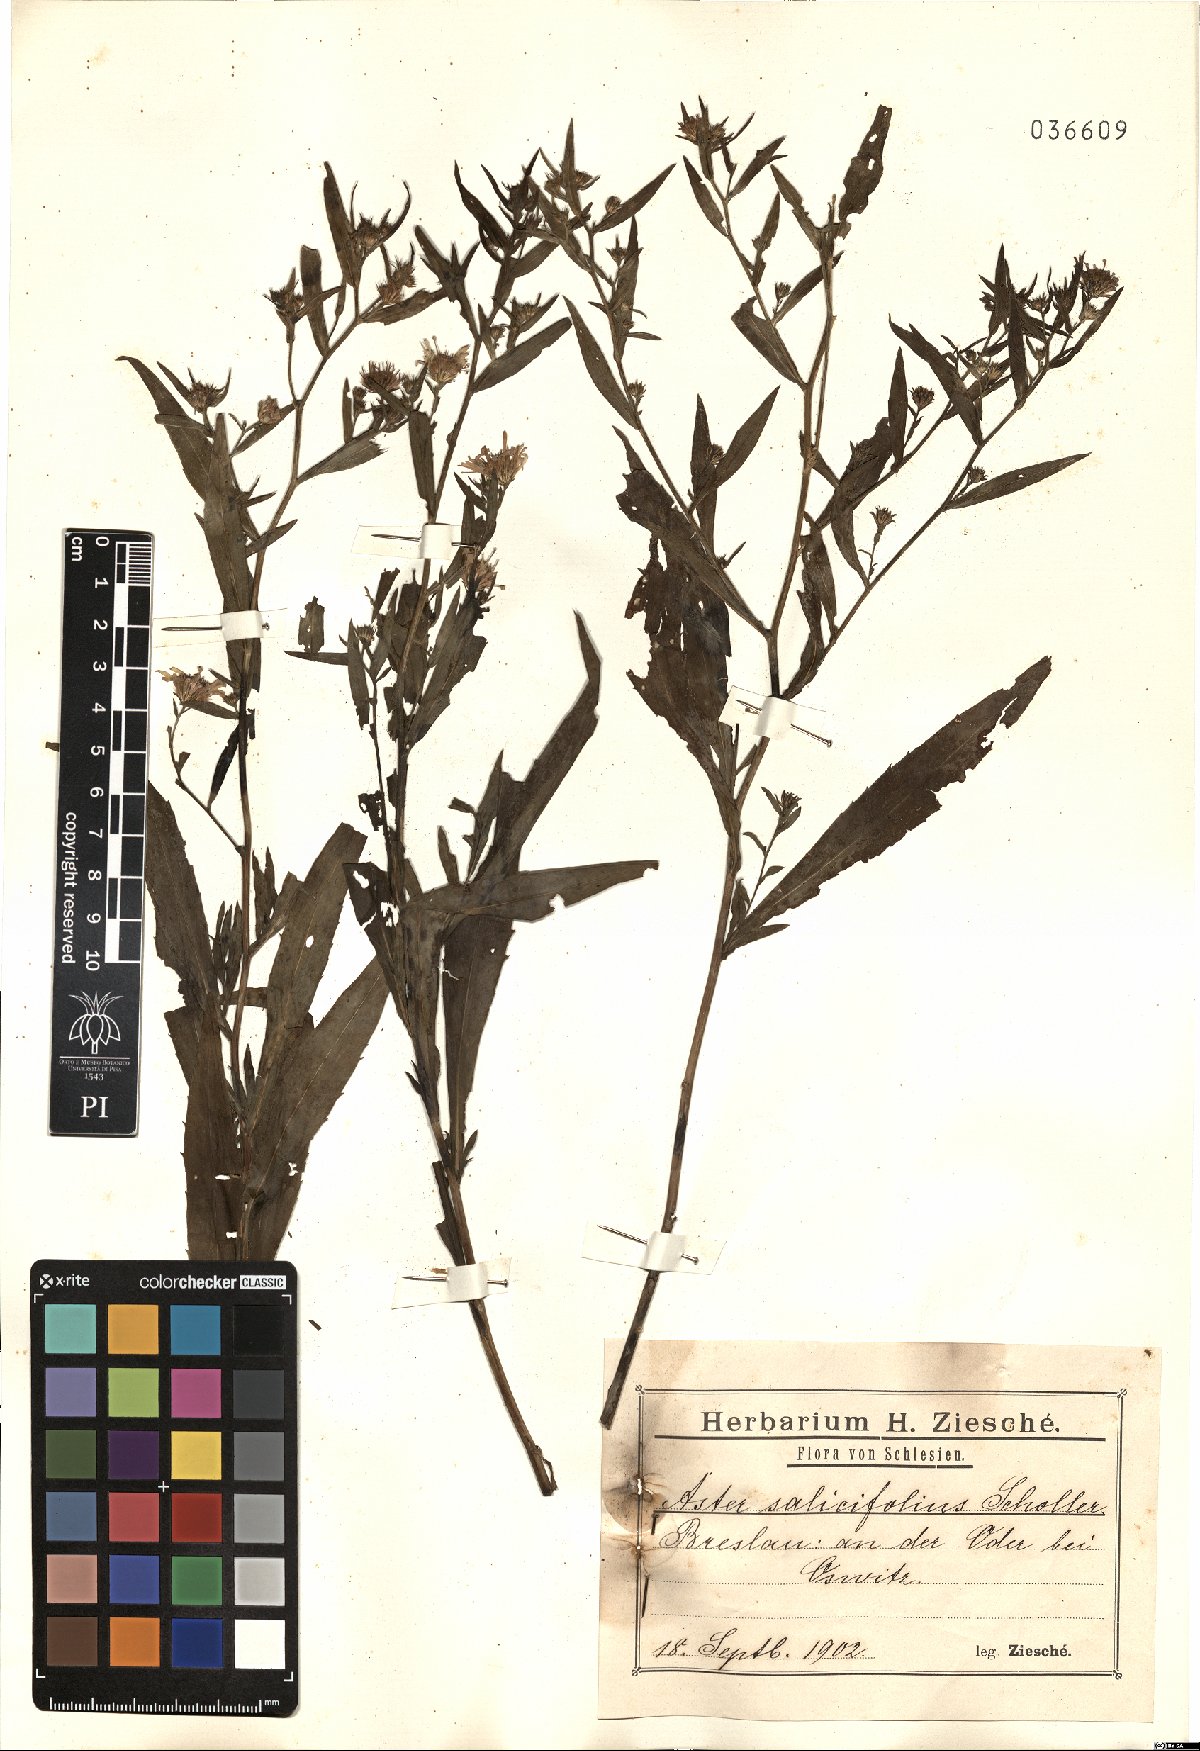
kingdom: Plantae
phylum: Tracheophyta
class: Magnoliopsida
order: Asterales
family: Asteraceae
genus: Symphyotrichum
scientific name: Symphyotrichum salignum
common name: Common michaelmas daisy
